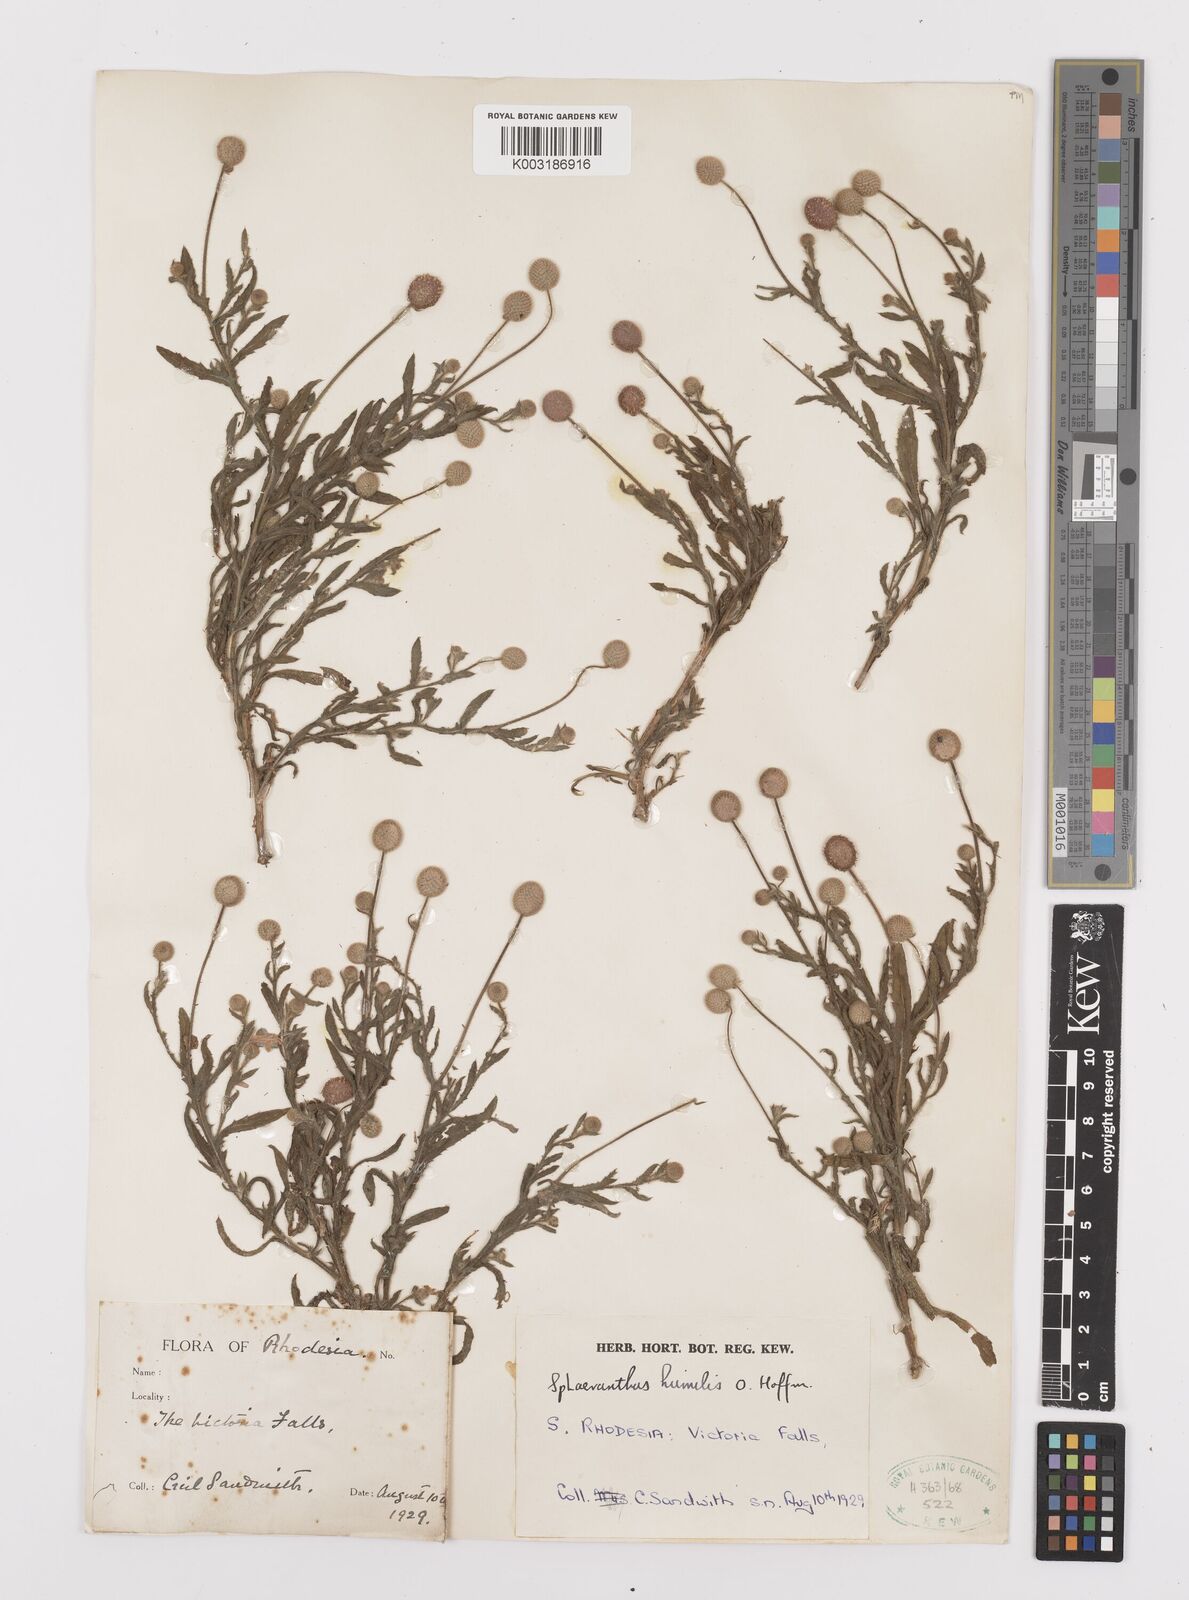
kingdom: Plantae
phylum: Tracheophyta
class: Magnoliopsida
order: Asterales
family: Asteraceae
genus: Sphaeranthus
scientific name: Sphaeranthus flexuosus
